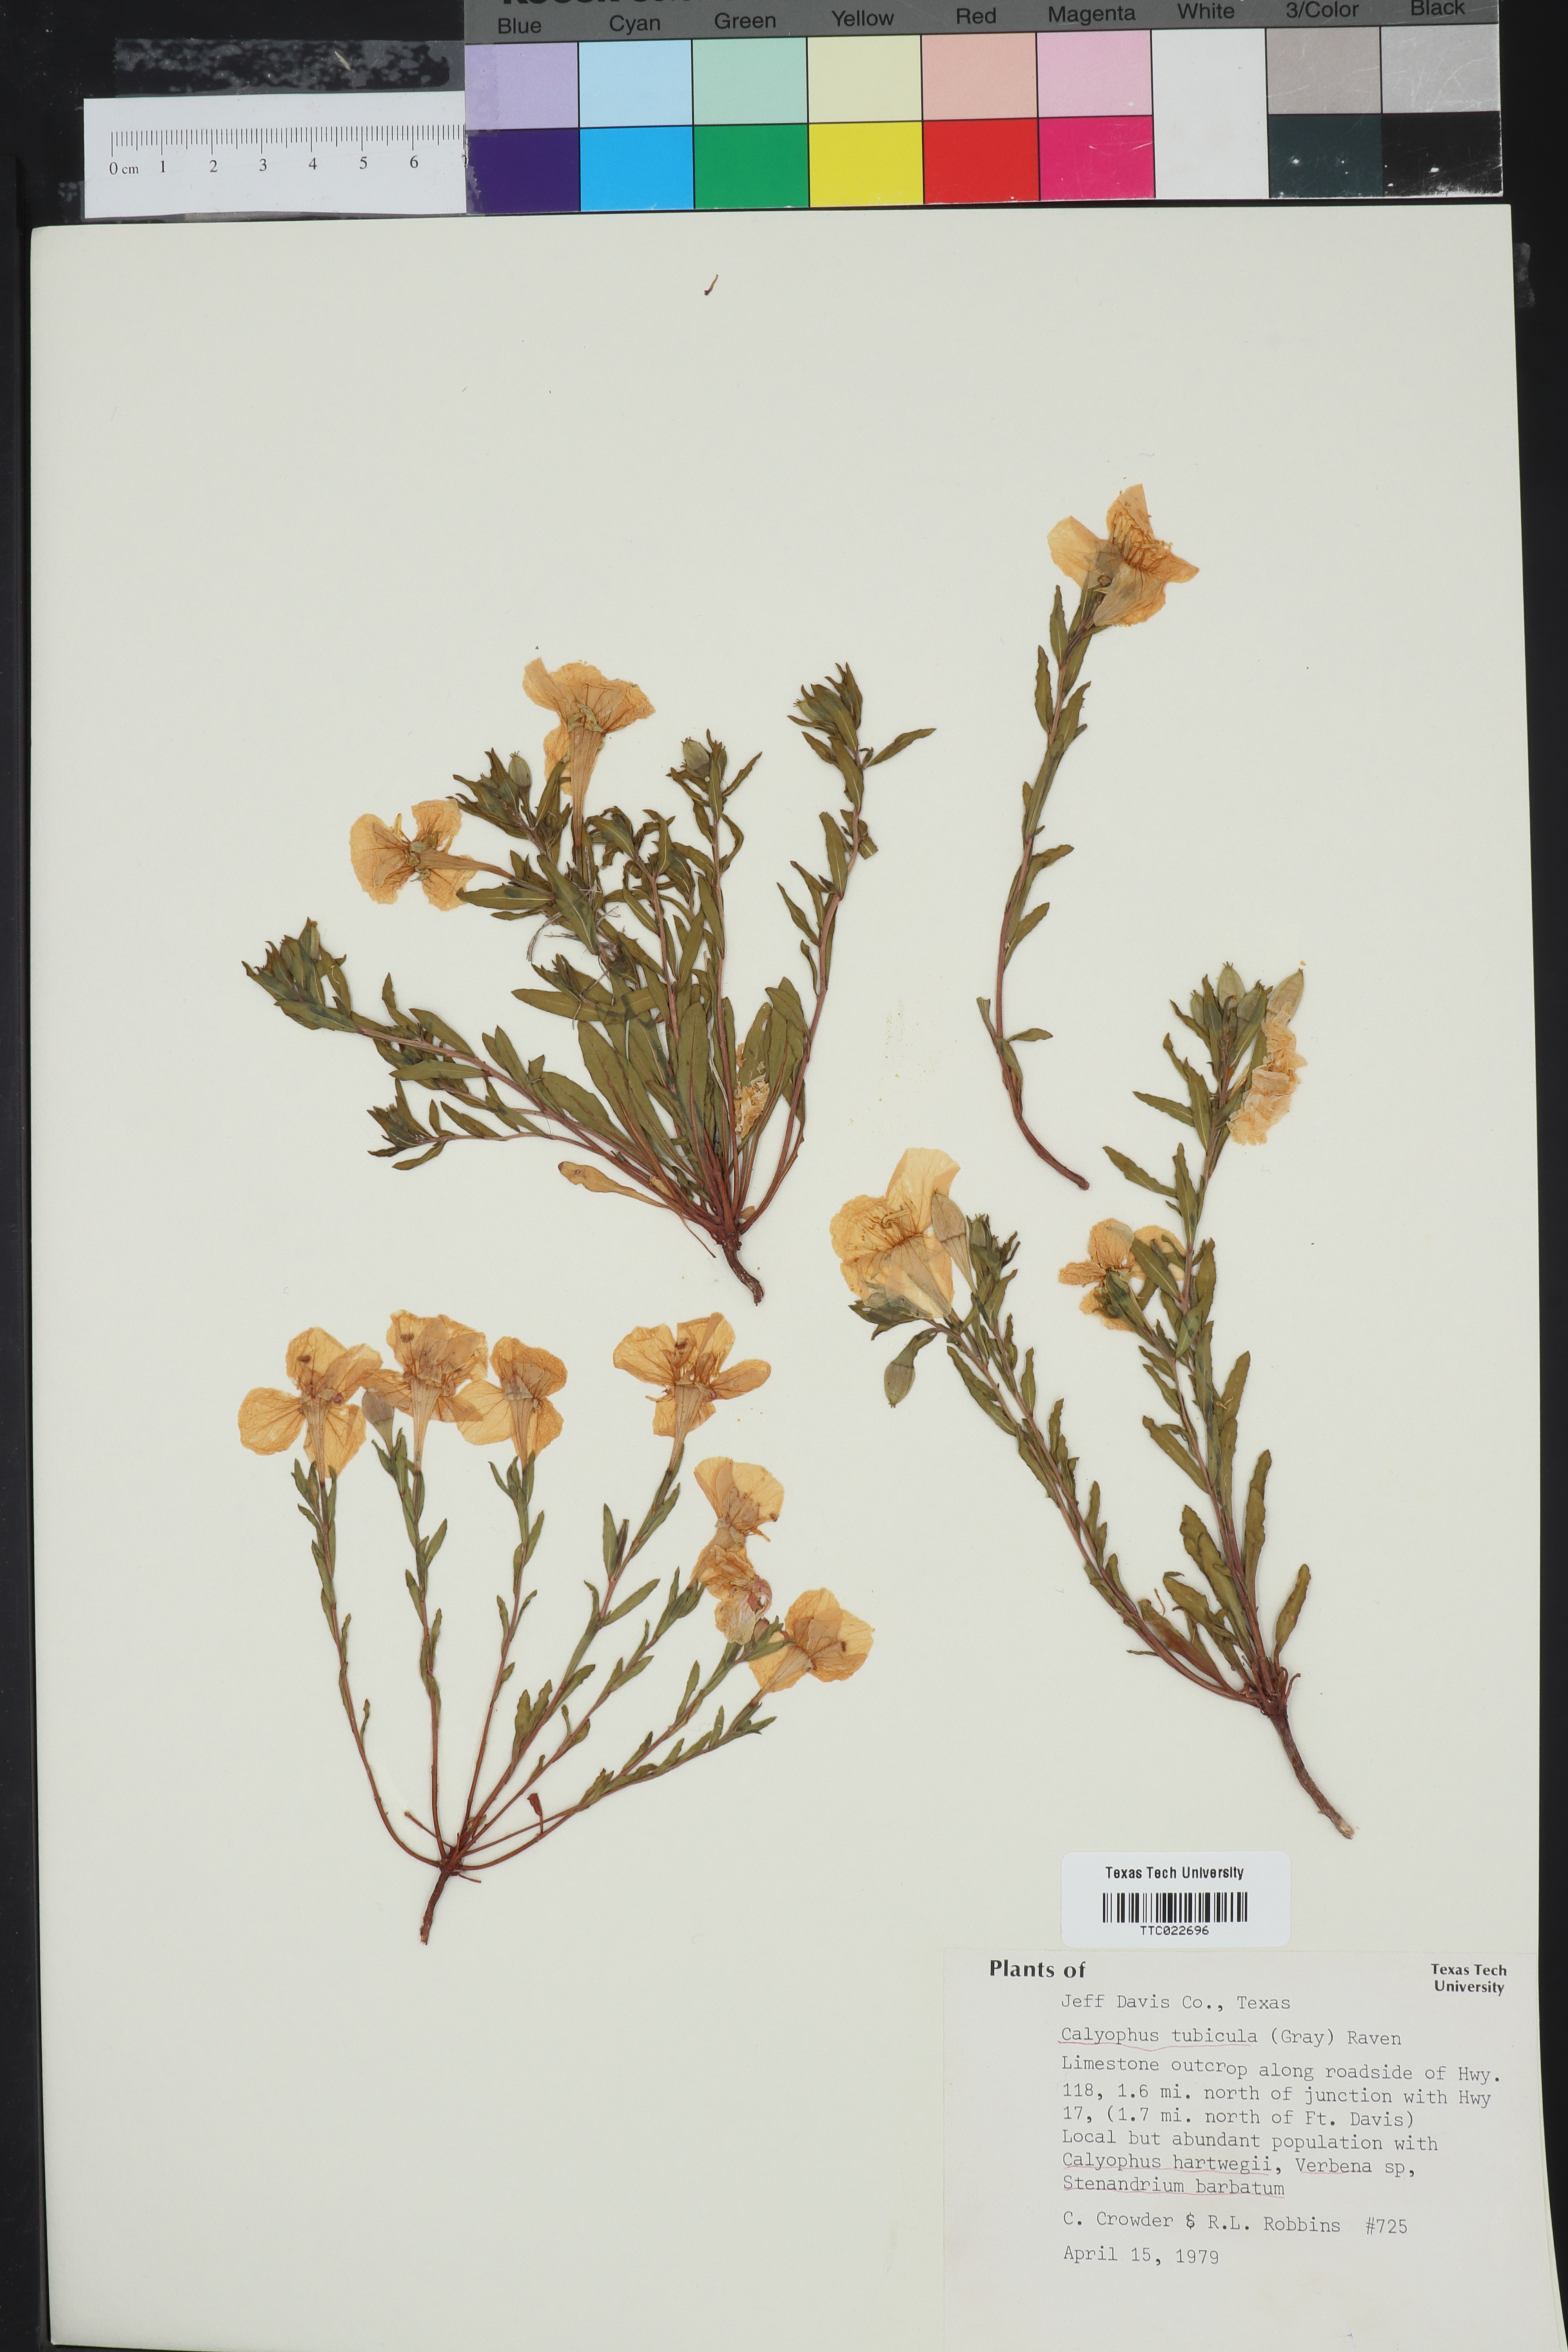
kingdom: Plantae
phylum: Tracheophyta
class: Magnoliopsida
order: Myrtales
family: Onagraceae
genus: Oenothera
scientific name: Oenothera tubicula
